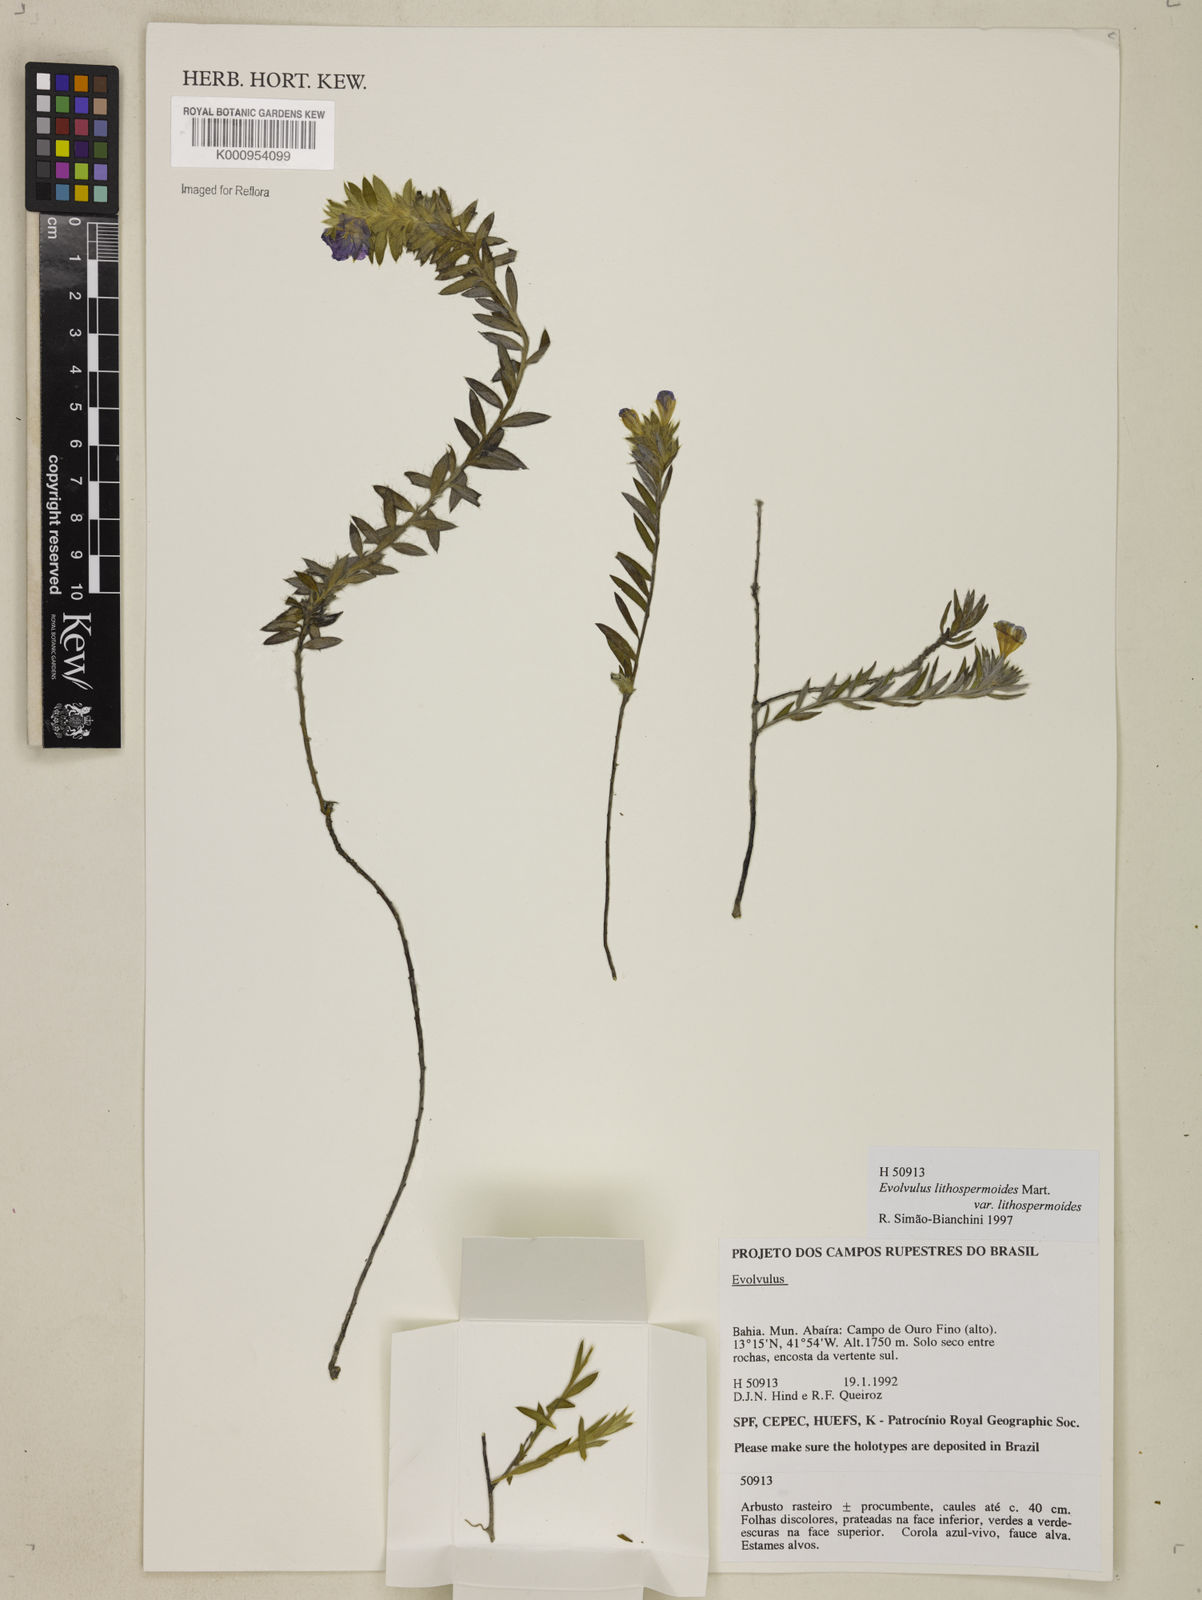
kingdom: Plantae
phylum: Tracheophyta
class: Magnoliopsida
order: Solanales
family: Convolvulaceae
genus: Evolvulus
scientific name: Evolvulus lithospermoides
